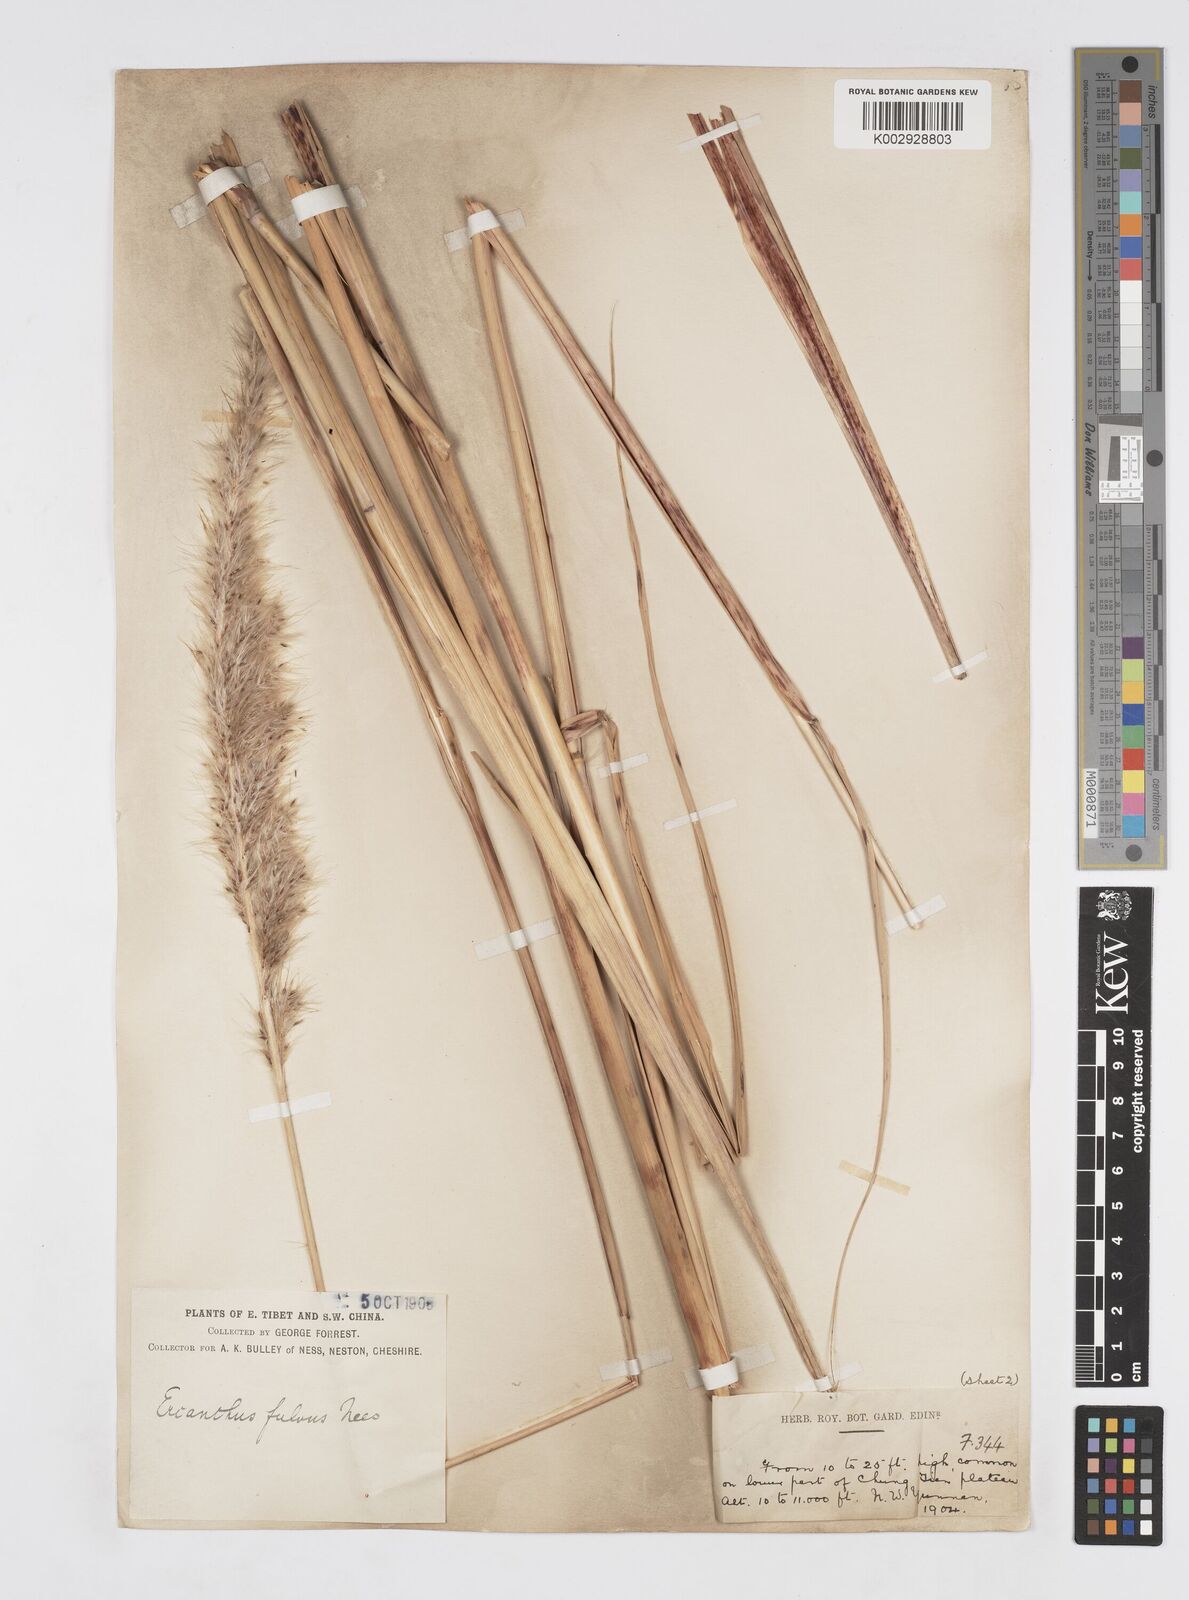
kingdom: Plantae
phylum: Tracheophyta
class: Liliopsida
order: Poales
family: Poaceae
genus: Tripidium
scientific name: Tripidium rufipilum
